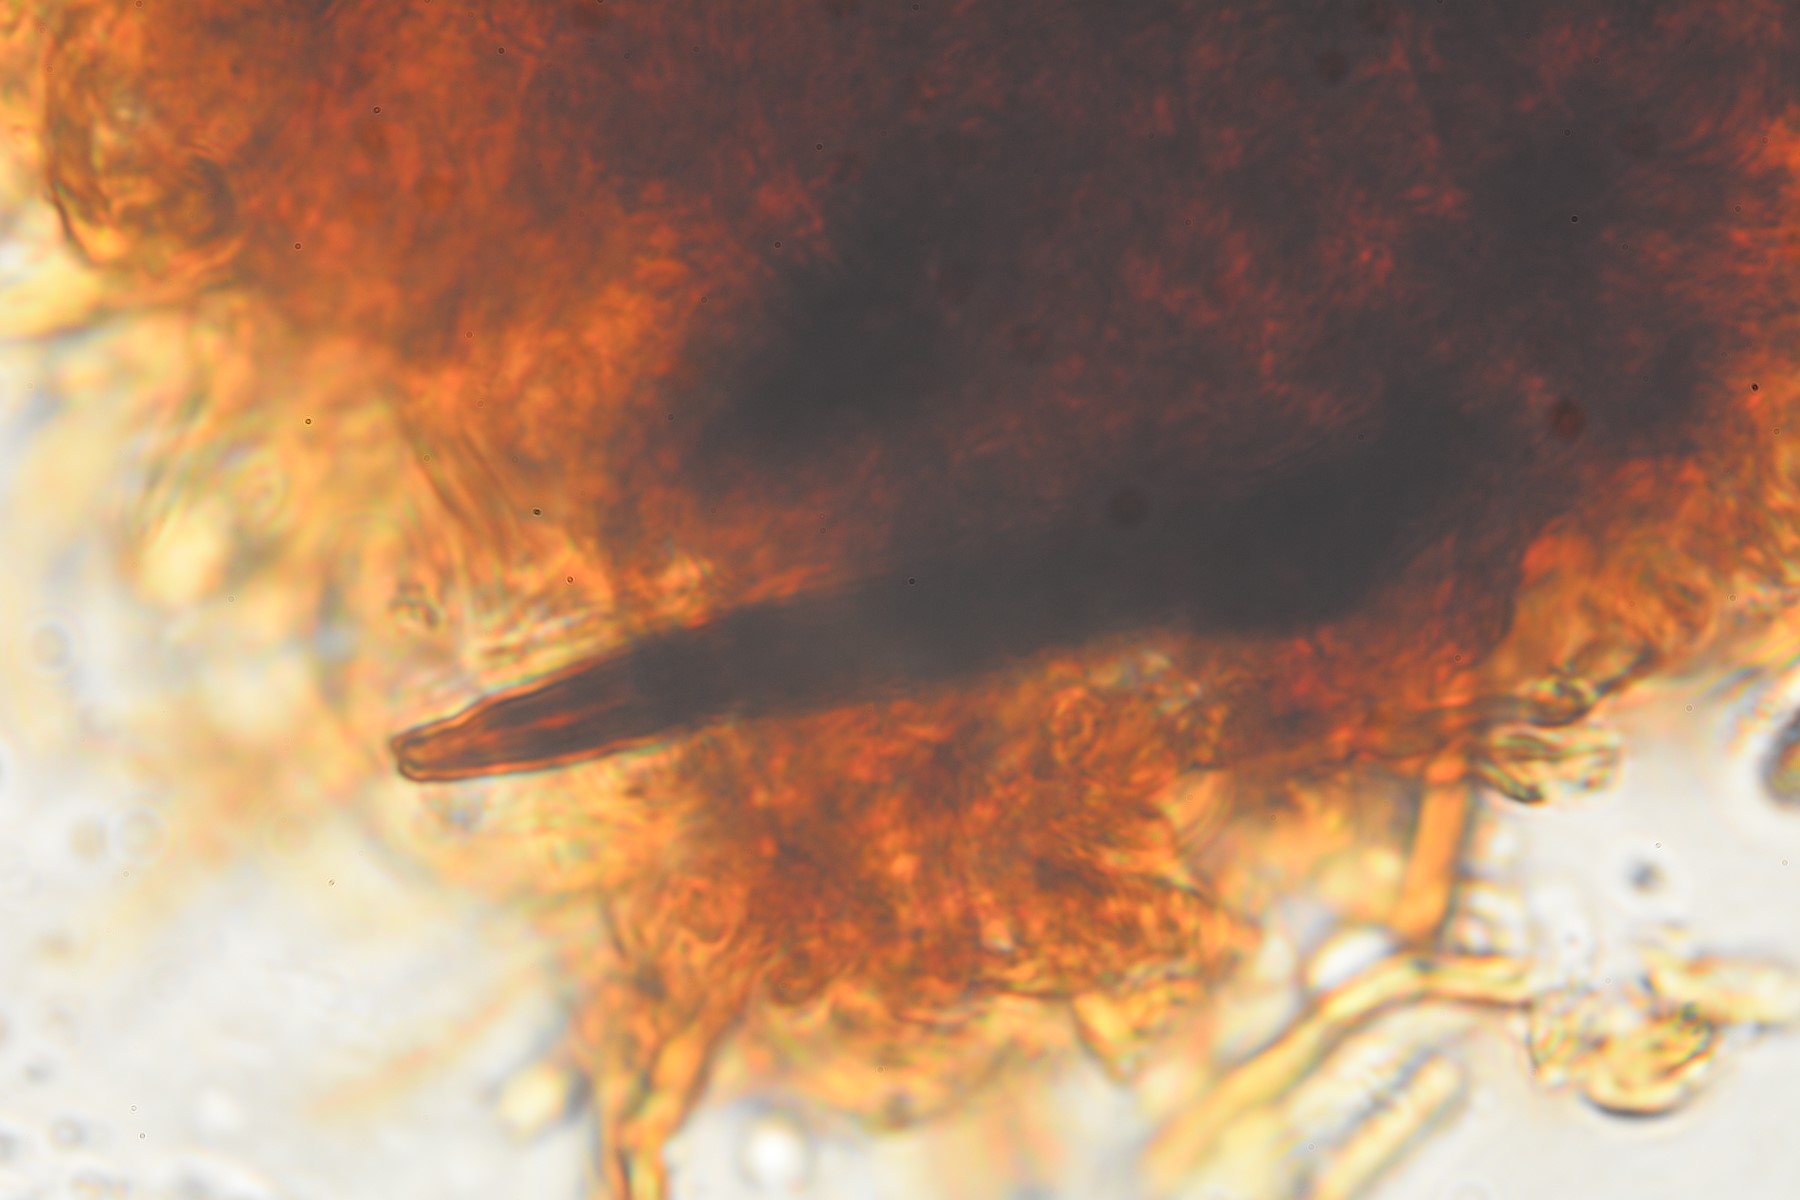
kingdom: Fungi
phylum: Basidiomycota
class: Agaricomycetes
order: Hymenochaetales
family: Hymenochaetaceae
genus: Fuscoporia
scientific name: Fuscoporia ferrea
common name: skorpe-ildporesvamp
